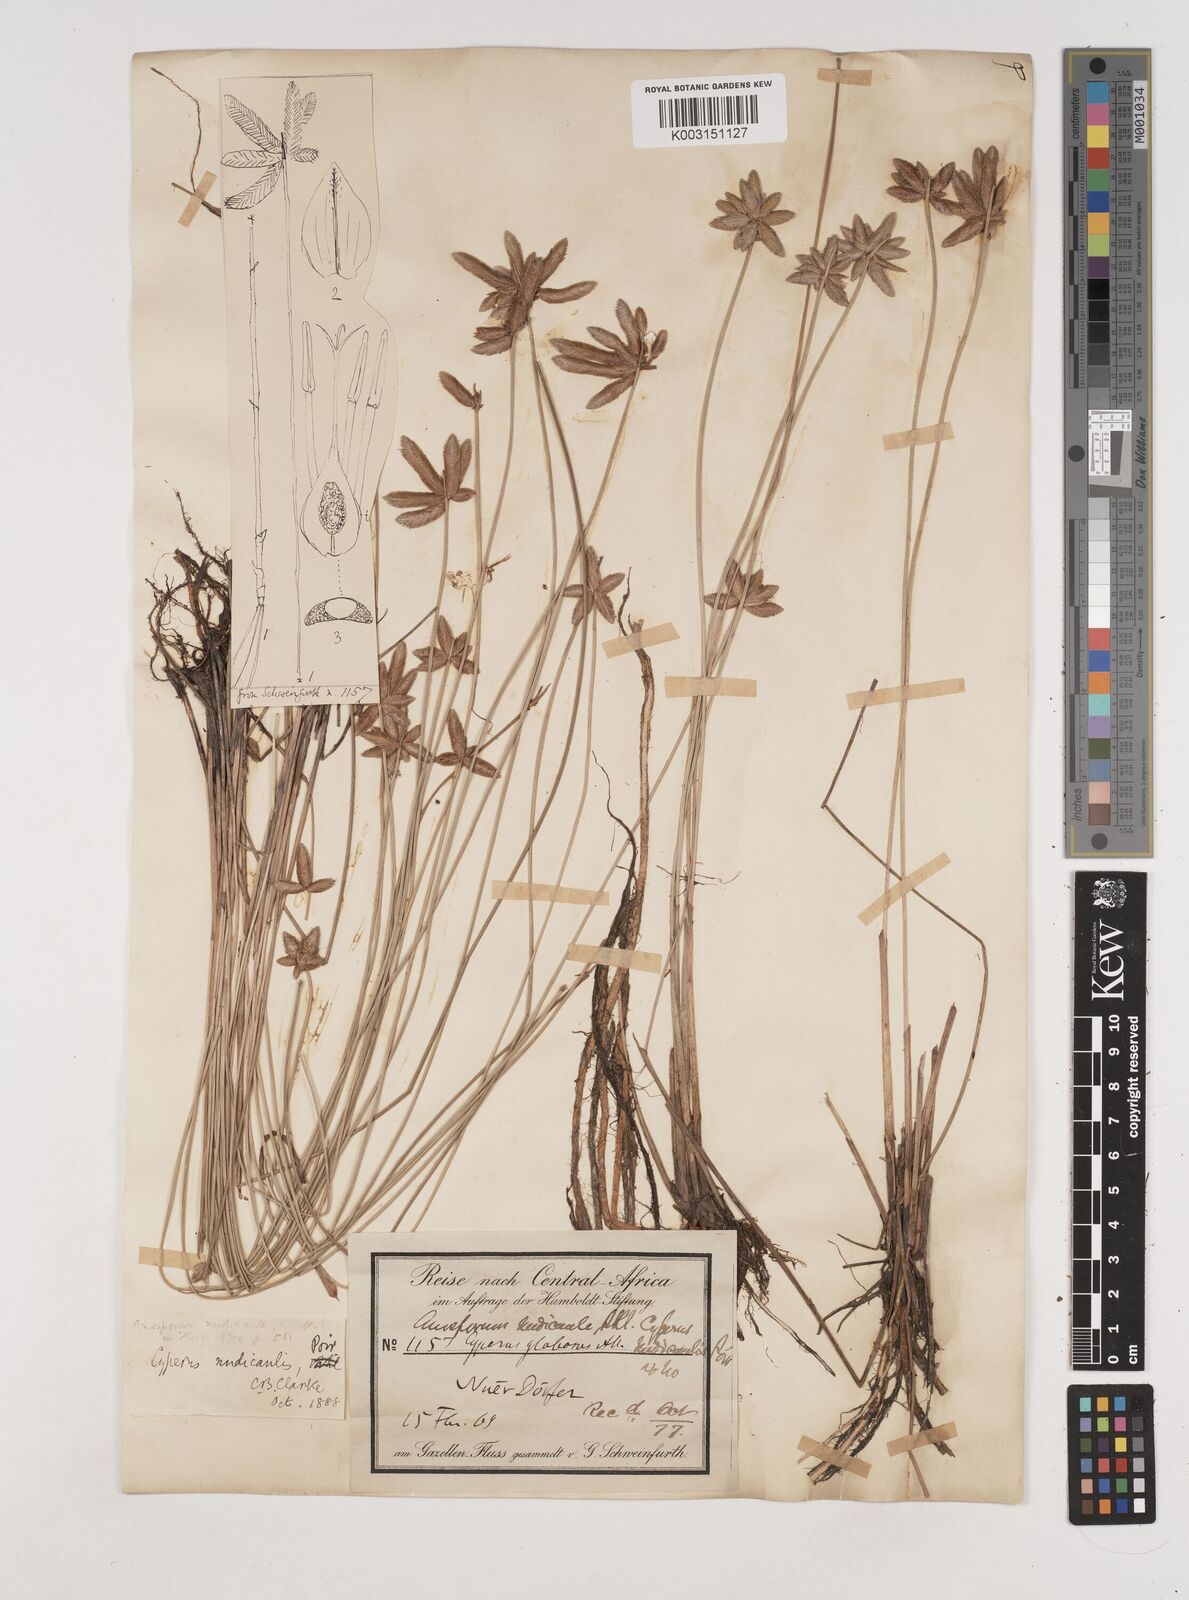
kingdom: Plantae
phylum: Tracheophyta
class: Liliopsida
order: Poales
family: Cyperaceae
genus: Cyperus
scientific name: Cyperus pectinatus
